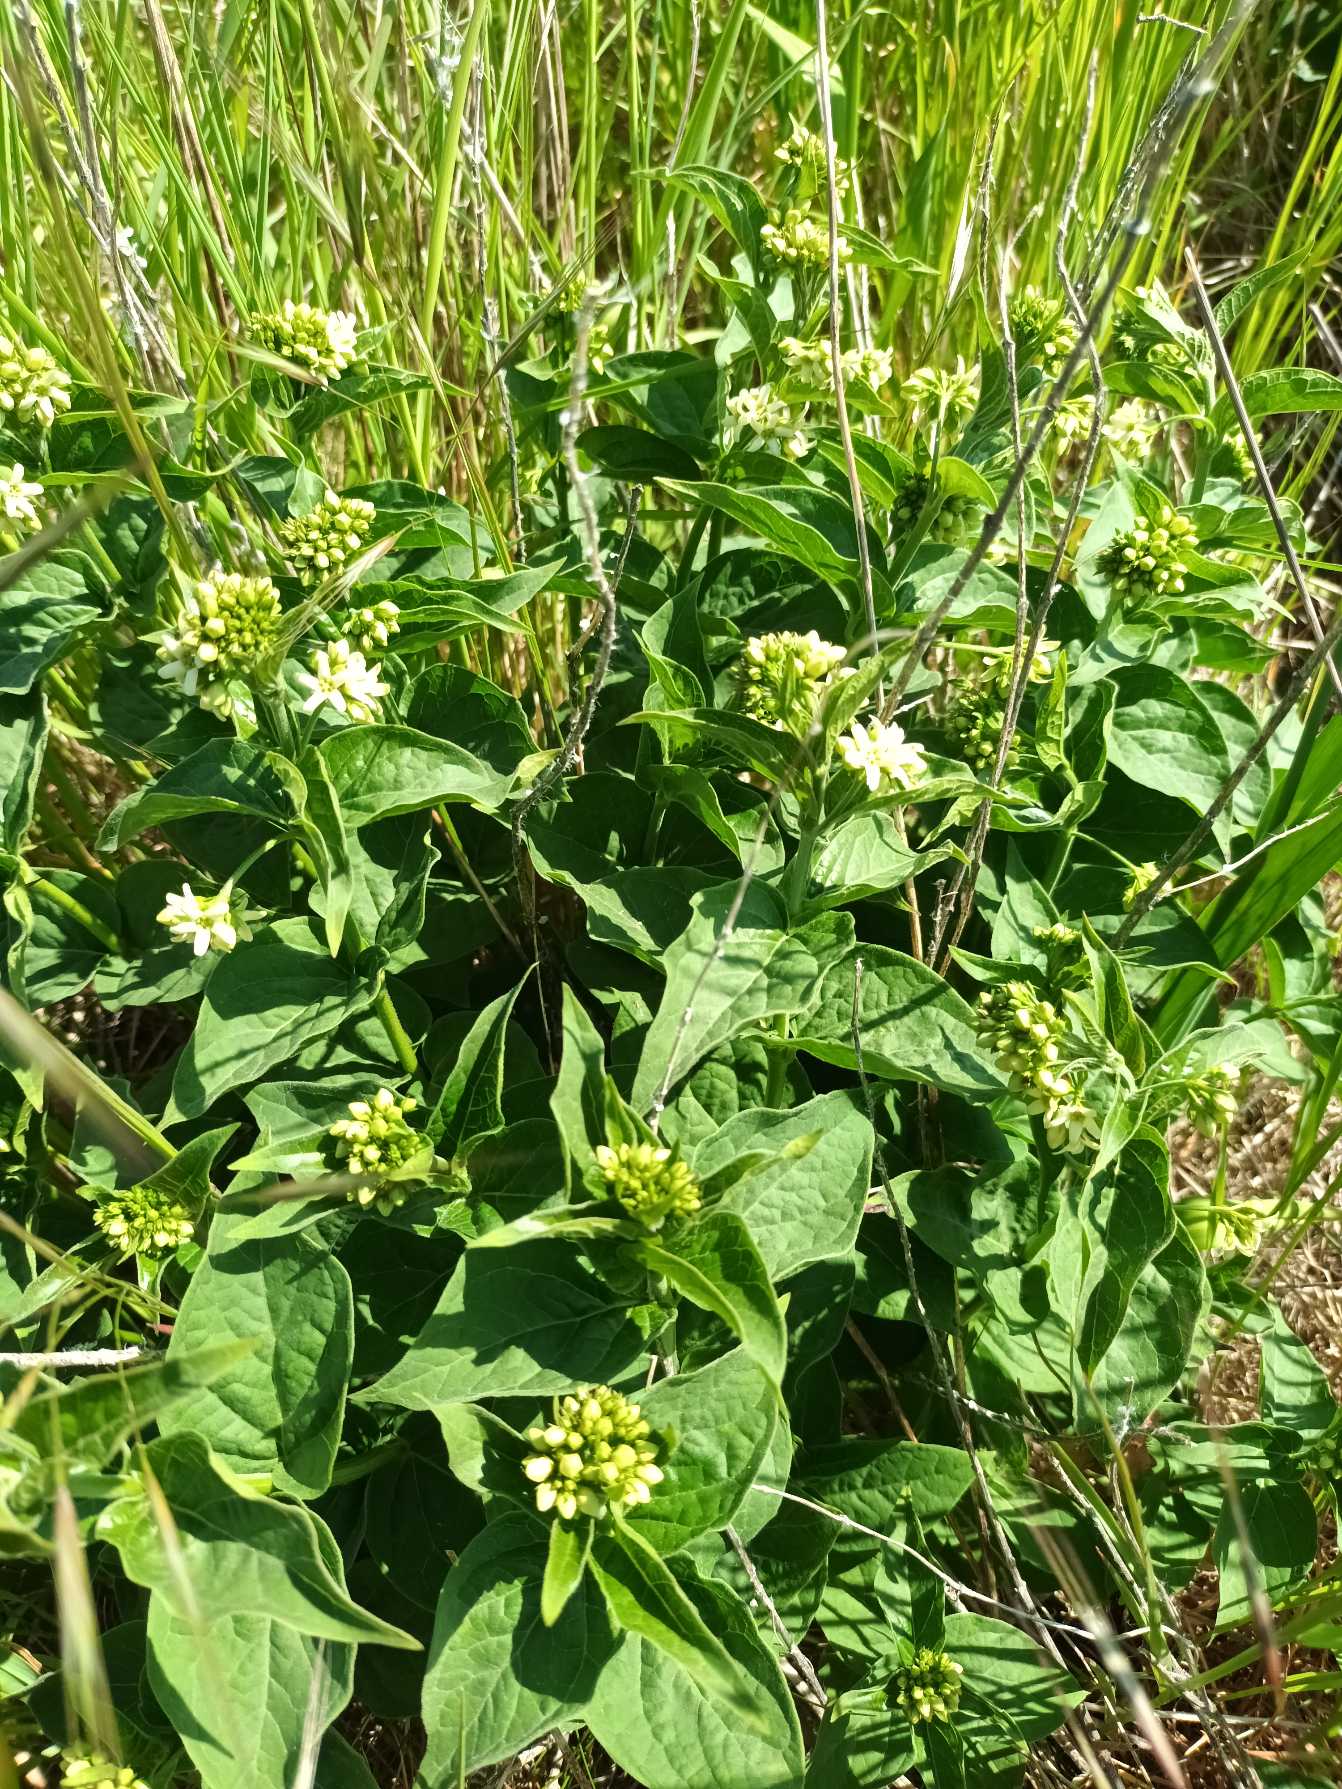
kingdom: Plantae
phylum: Tracheophyta
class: Magnoliopsida
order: Gentianales
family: Apocynaceae
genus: Vincetoxicum
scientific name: Vincetoxicum hirundinaria
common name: Svalerod
